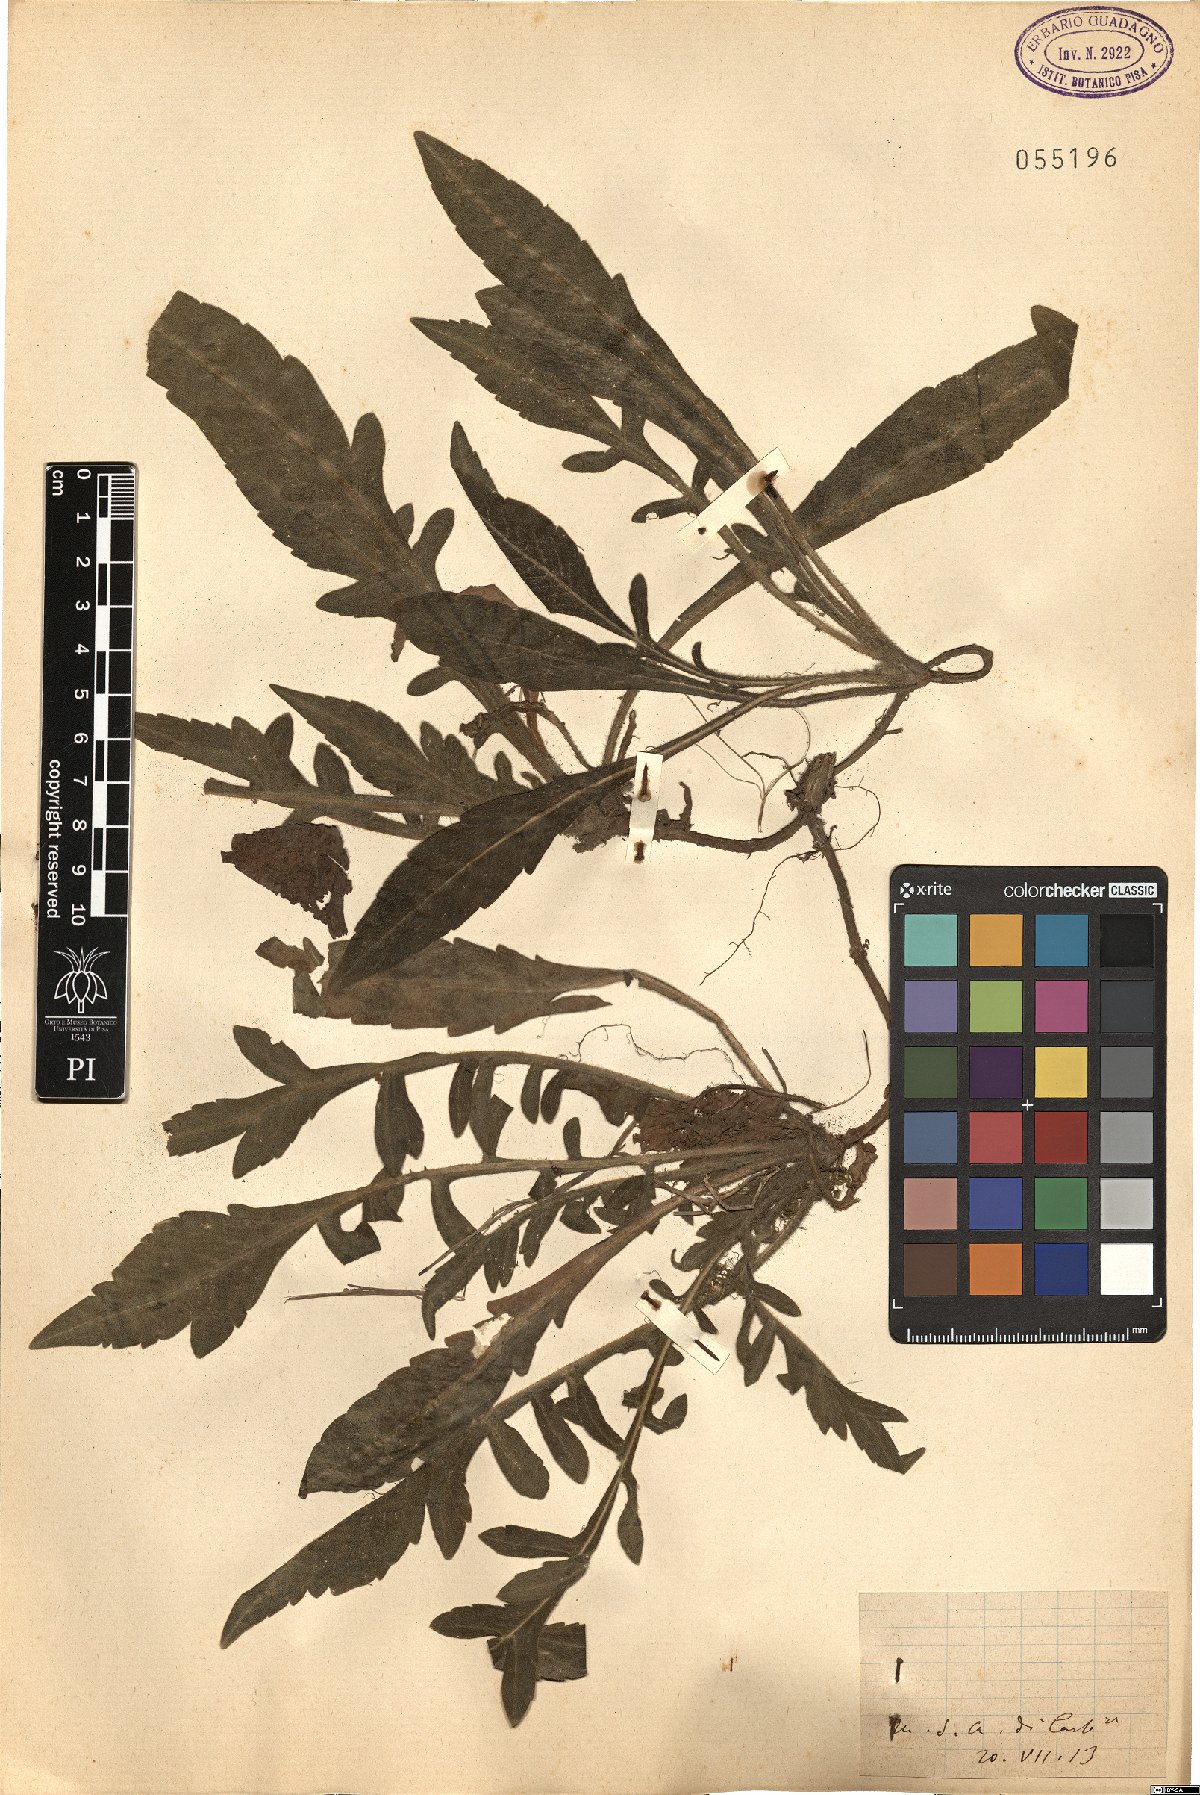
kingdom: Plantae
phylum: Tracheophyta
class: Magnoliopsida
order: Dipsacales
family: Caprifoliaceae
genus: Knautia
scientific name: Knautia
